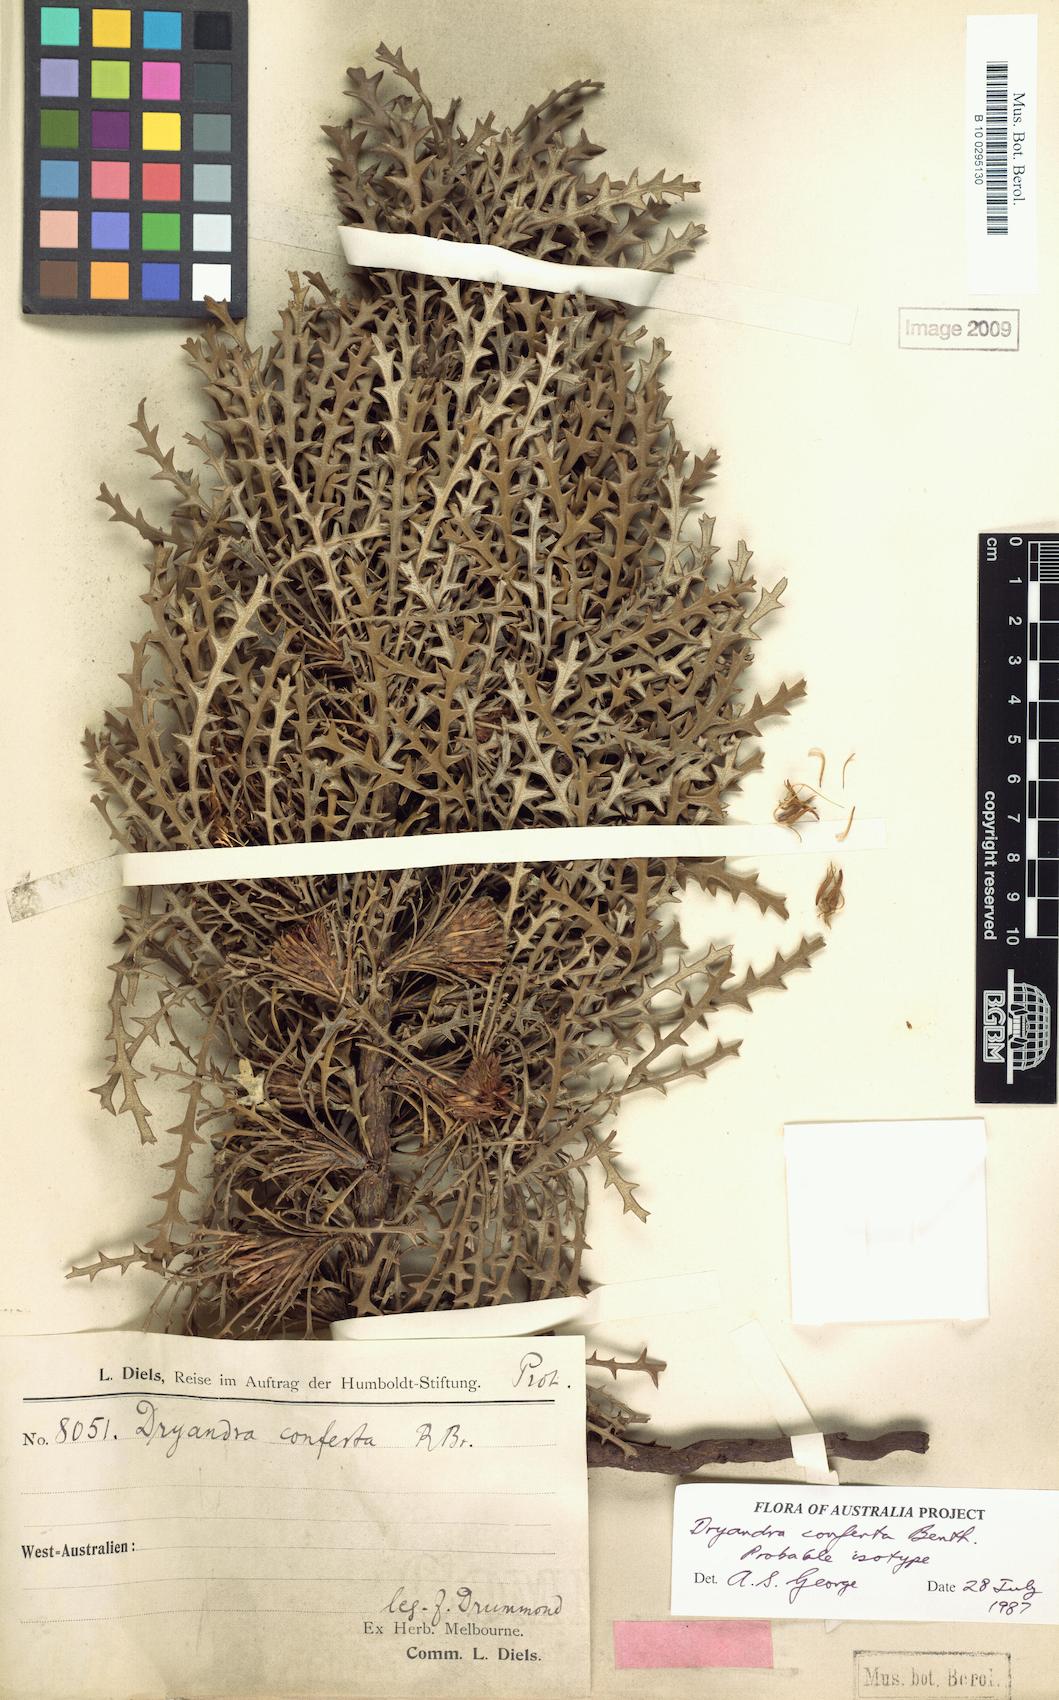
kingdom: Plantae
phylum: Tracheophyta
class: Magnoliopsida
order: Proteales
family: Proteaceae
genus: Banksia
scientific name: Banksia densa
